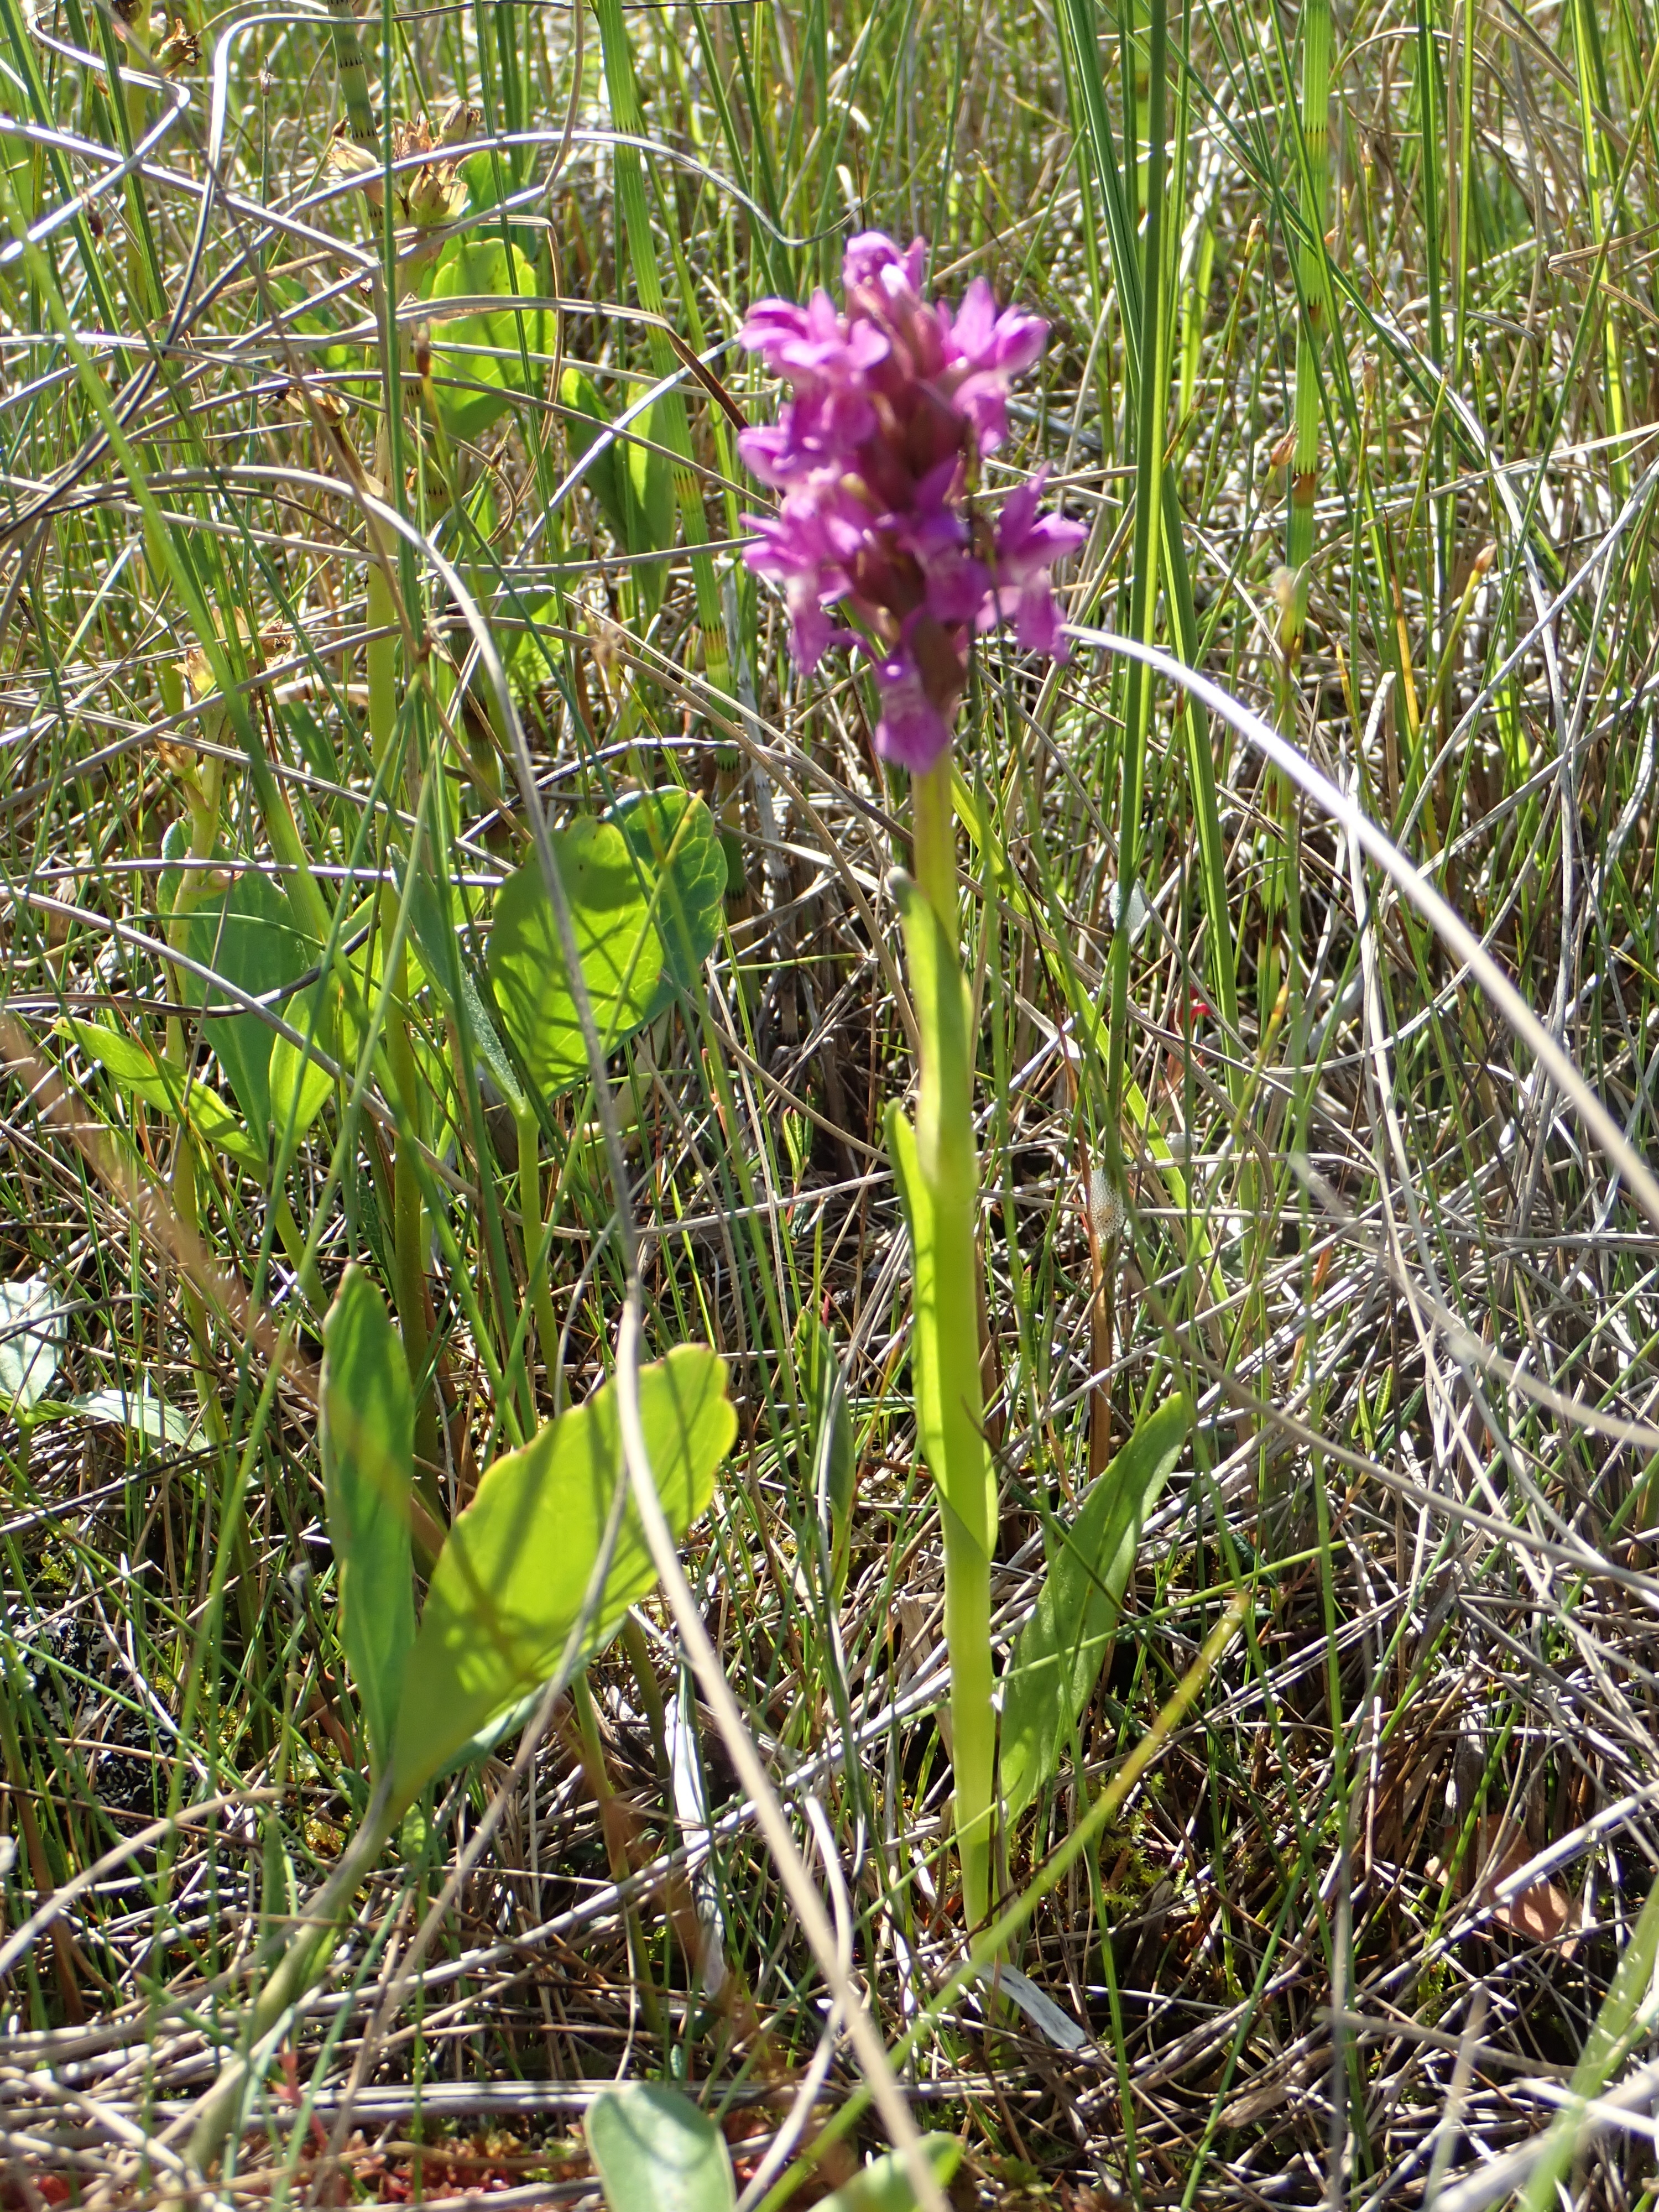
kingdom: Plantae
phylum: Tracheophyta
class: Liliopsida
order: Asparagales
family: Orchidaceae
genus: Dactylorhiza
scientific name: Dactylorhiza incarnata
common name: Early marsh-orchid
